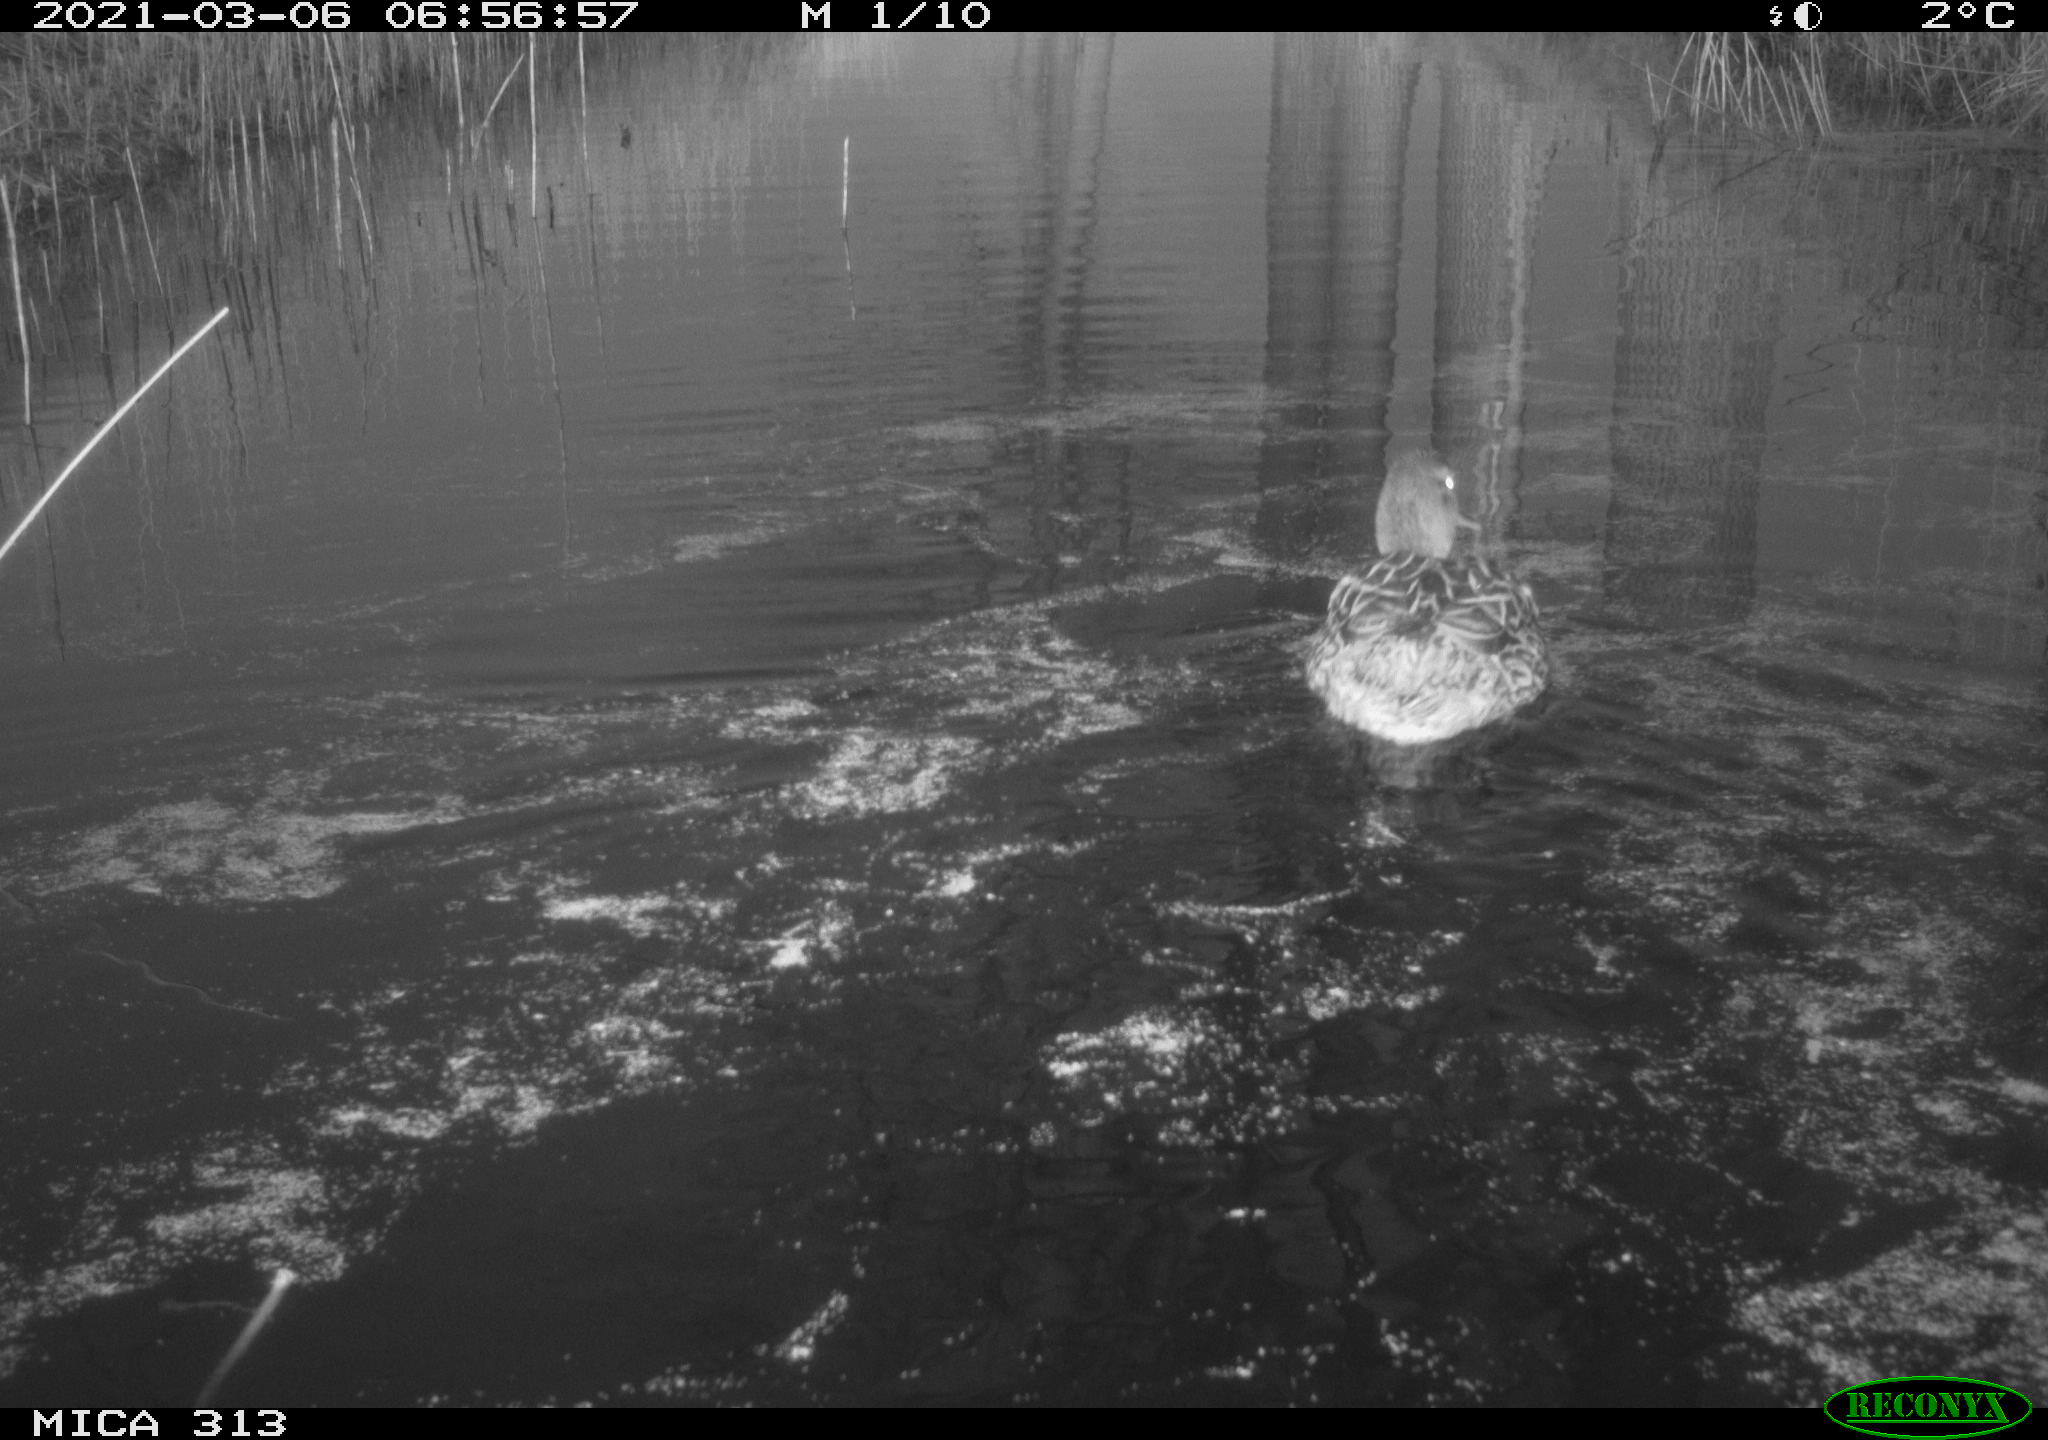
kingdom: Animalia
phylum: Chordata
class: Aves
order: Anseriformes
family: Anatidae
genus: Mareca
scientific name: Mareca strepera
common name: Gadwall
